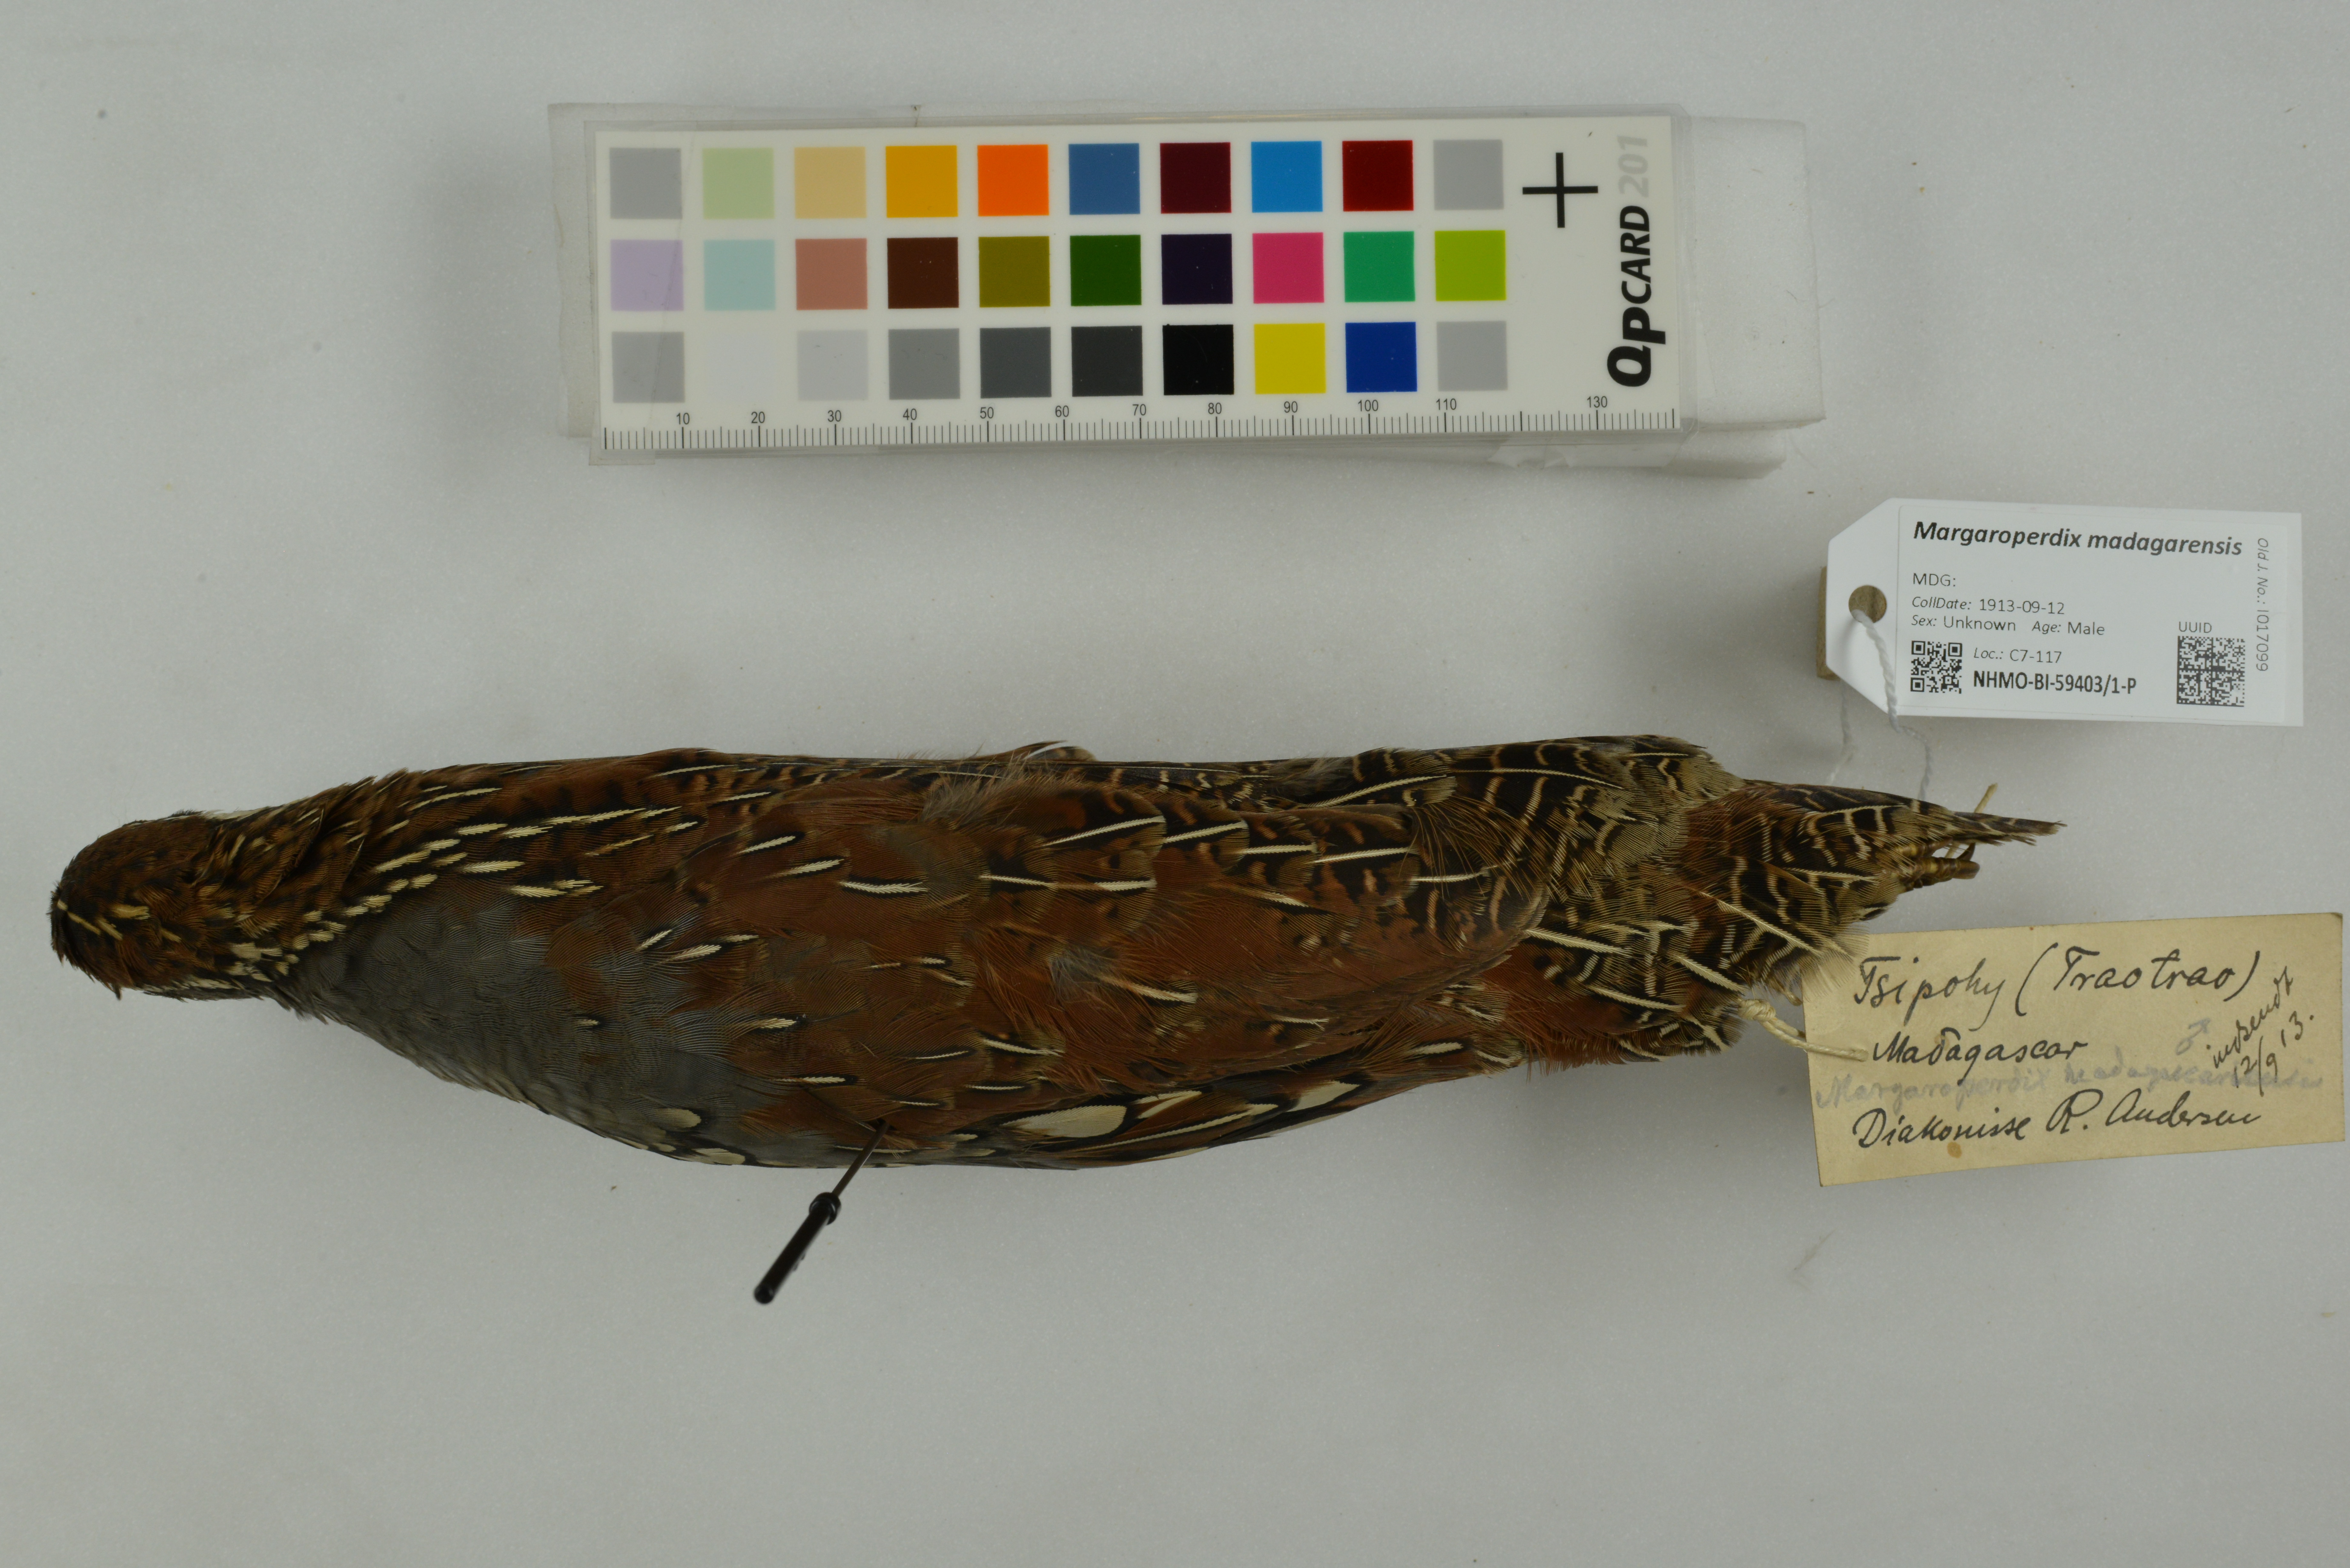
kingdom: Animalia
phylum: Chordata
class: Aves
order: Galliformes
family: Phasianidae
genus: Margaroperdix
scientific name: Margaroperdix madagarensis
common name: Madagascar partridge
